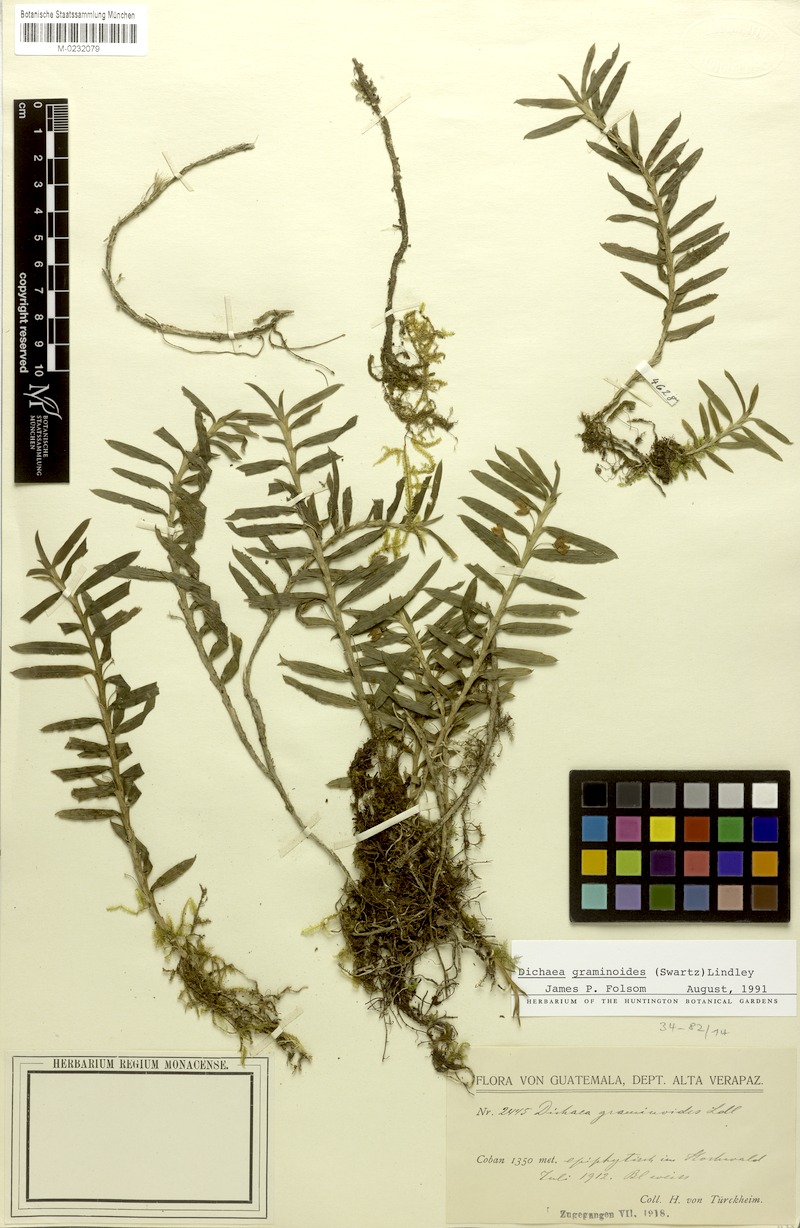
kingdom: Plantae
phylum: Tracheophyta
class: Liliopsida
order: Asparagales
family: Orchidaceae
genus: Dichaea
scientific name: Dichaea graminoides
